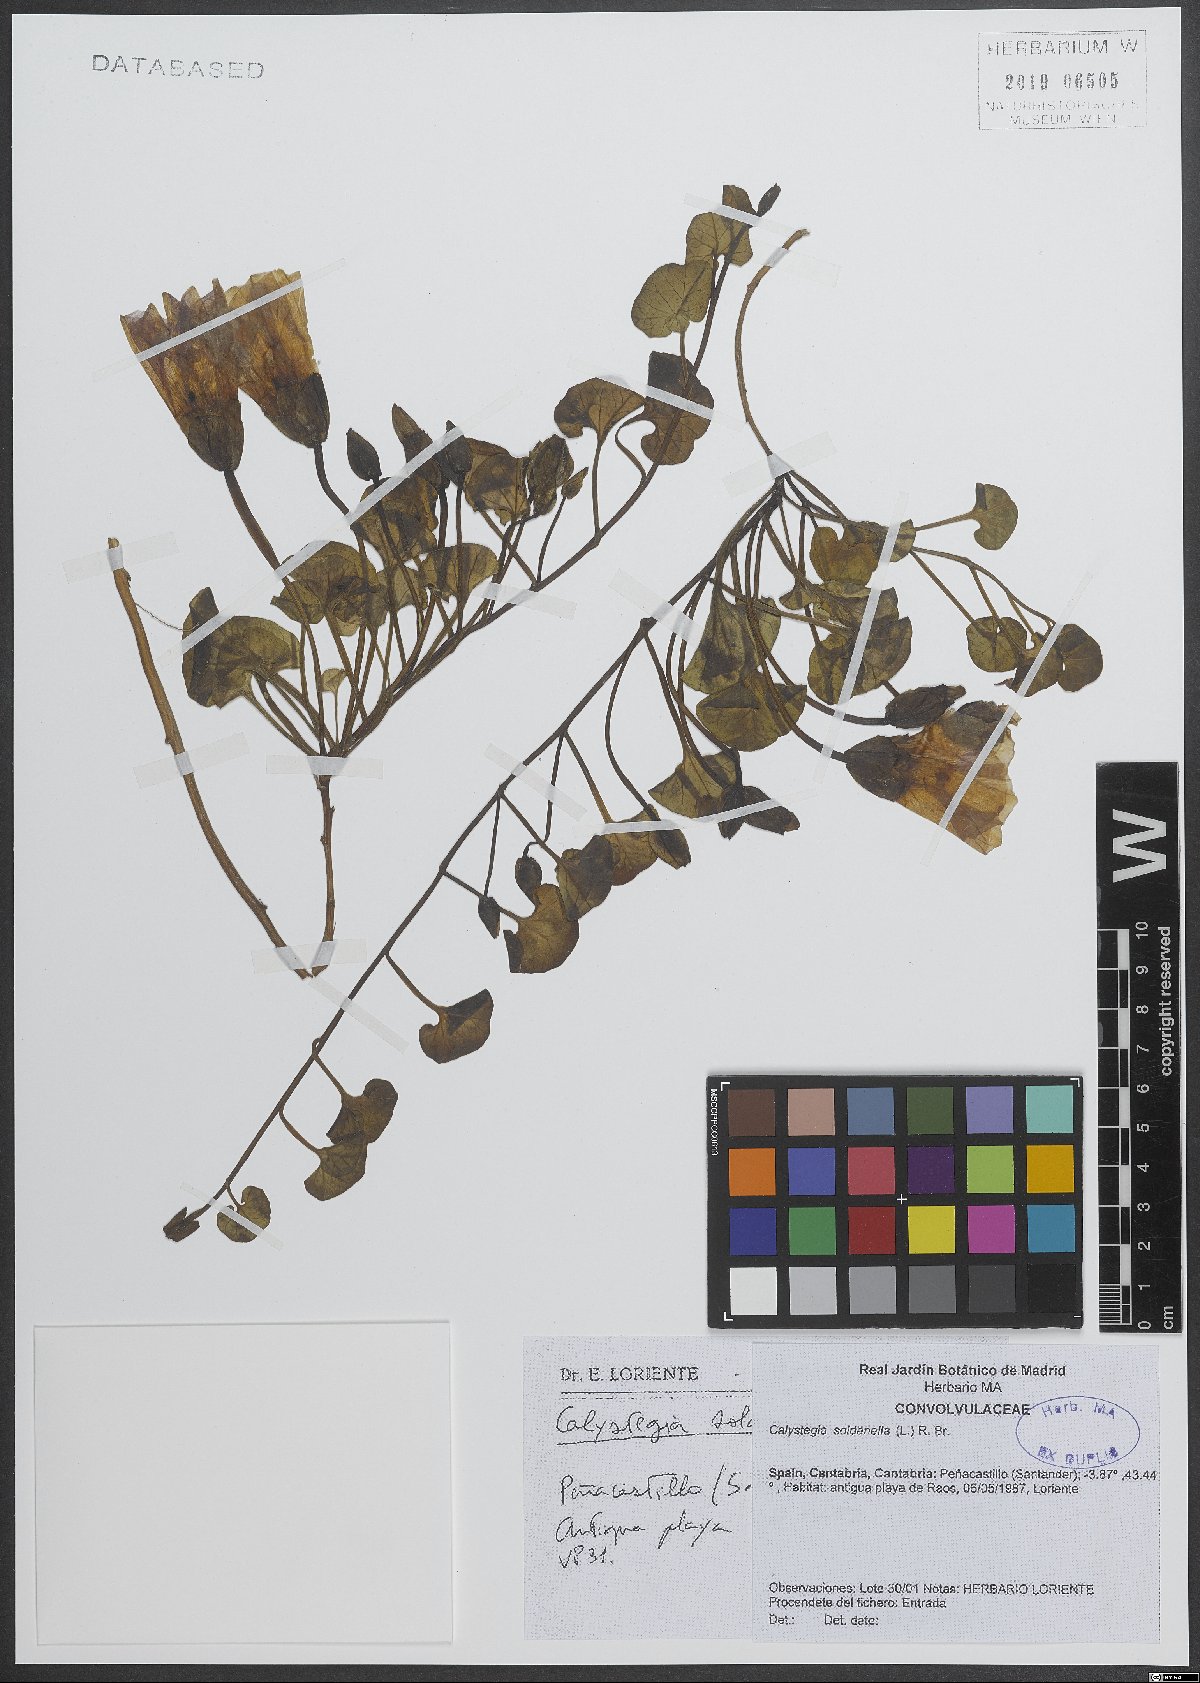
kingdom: Plantae
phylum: Tracheophyta
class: Magnoliopsida
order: Solanales
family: Convolvulaceae
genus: Calystegia
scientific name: Calystegia soldanella
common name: Sea bindweed
